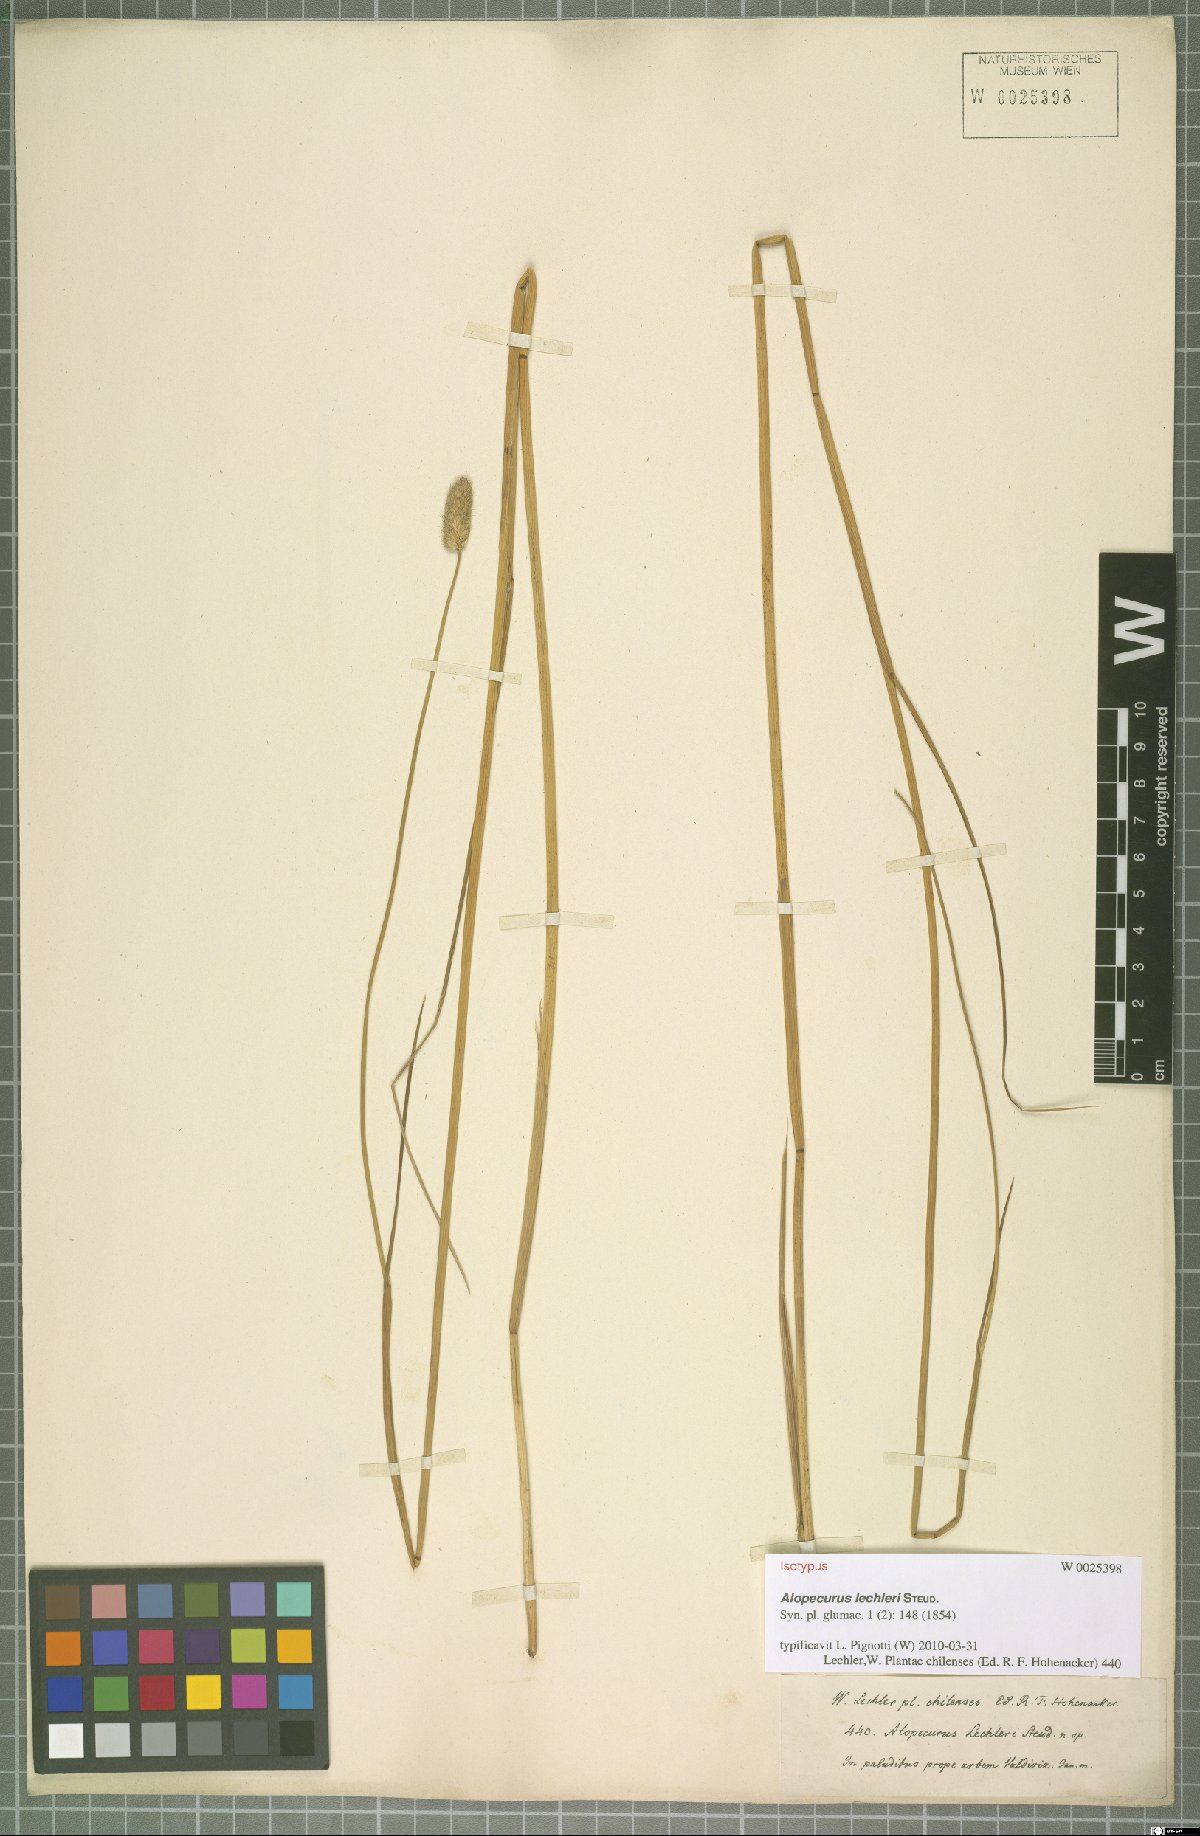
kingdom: Plantae
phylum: Tracheophyta
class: Liliopsida
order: Poales
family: Poaceae
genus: Alopecurus
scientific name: Alopecurus magellanicus
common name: Alpine foxtail
